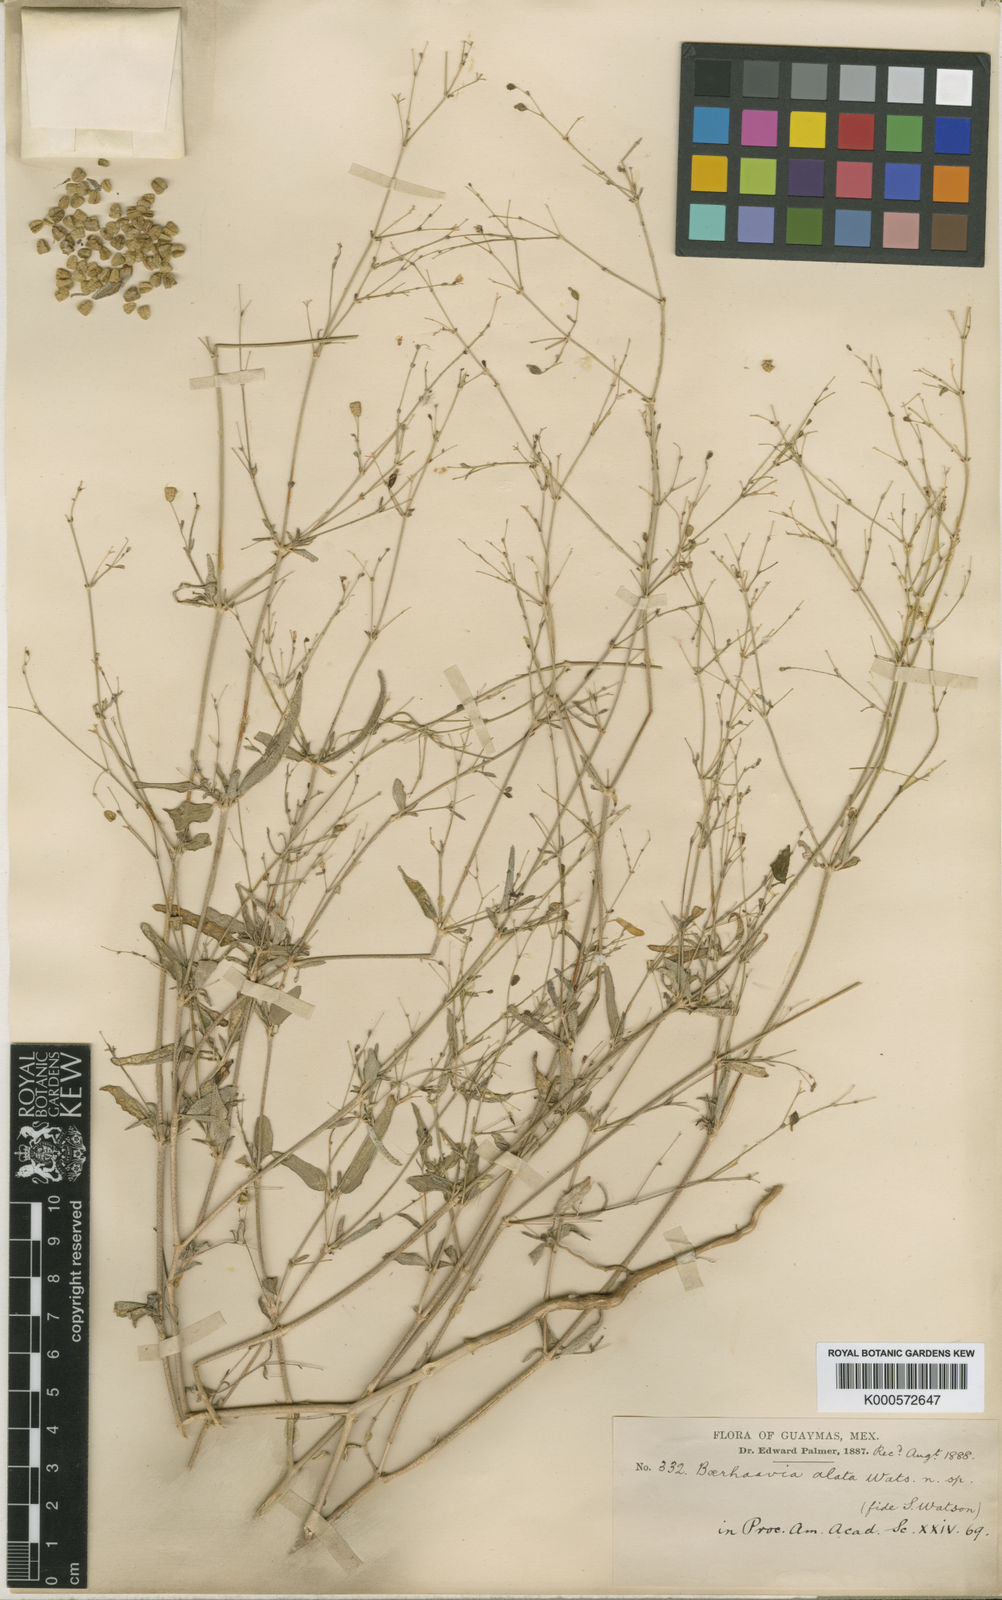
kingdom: Plantae
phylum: Tracheophyta
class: Magnoliopsida
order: Caryophyllales
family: Nyctaginaceae
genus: Boerhavia
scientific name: Boerhavia alata
